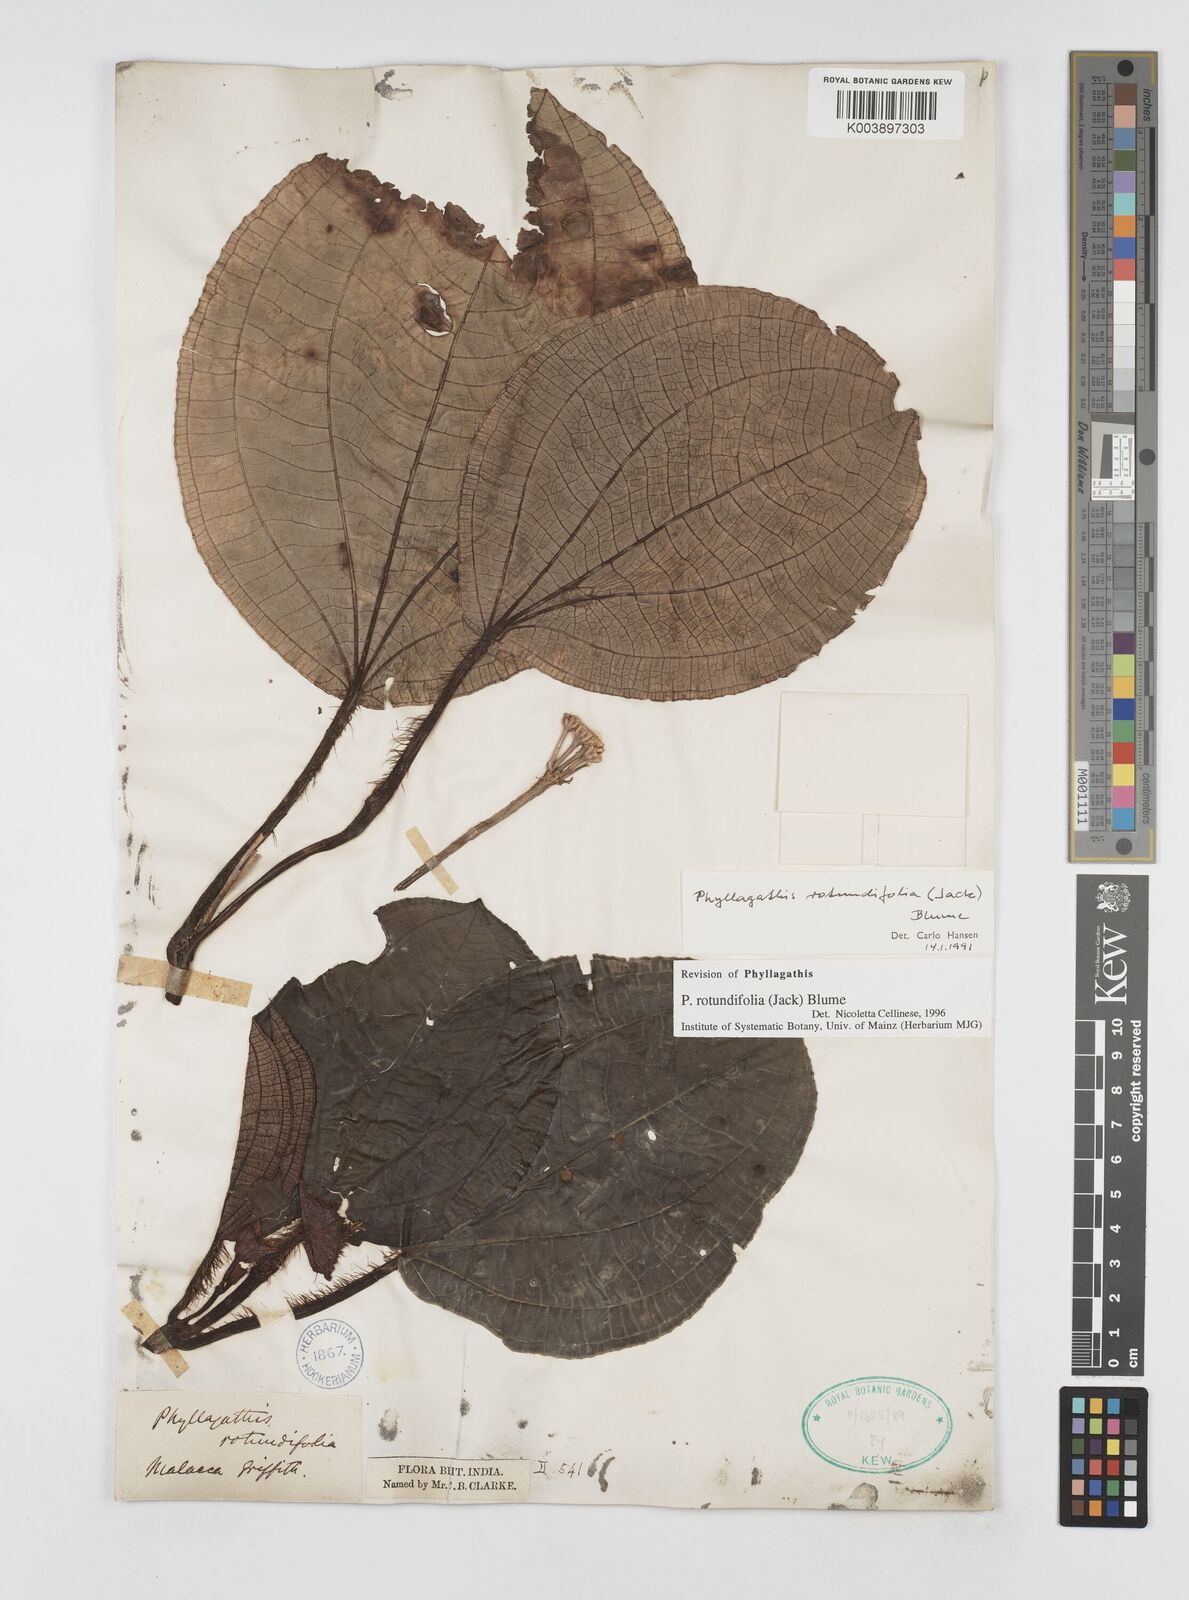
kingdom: Plantae
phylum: Tracheophyta
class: Magnoliopsida
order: Myrtales
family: Melastomataceae
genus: Phyllagathis
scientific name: Phyllagathis rotundifolia
